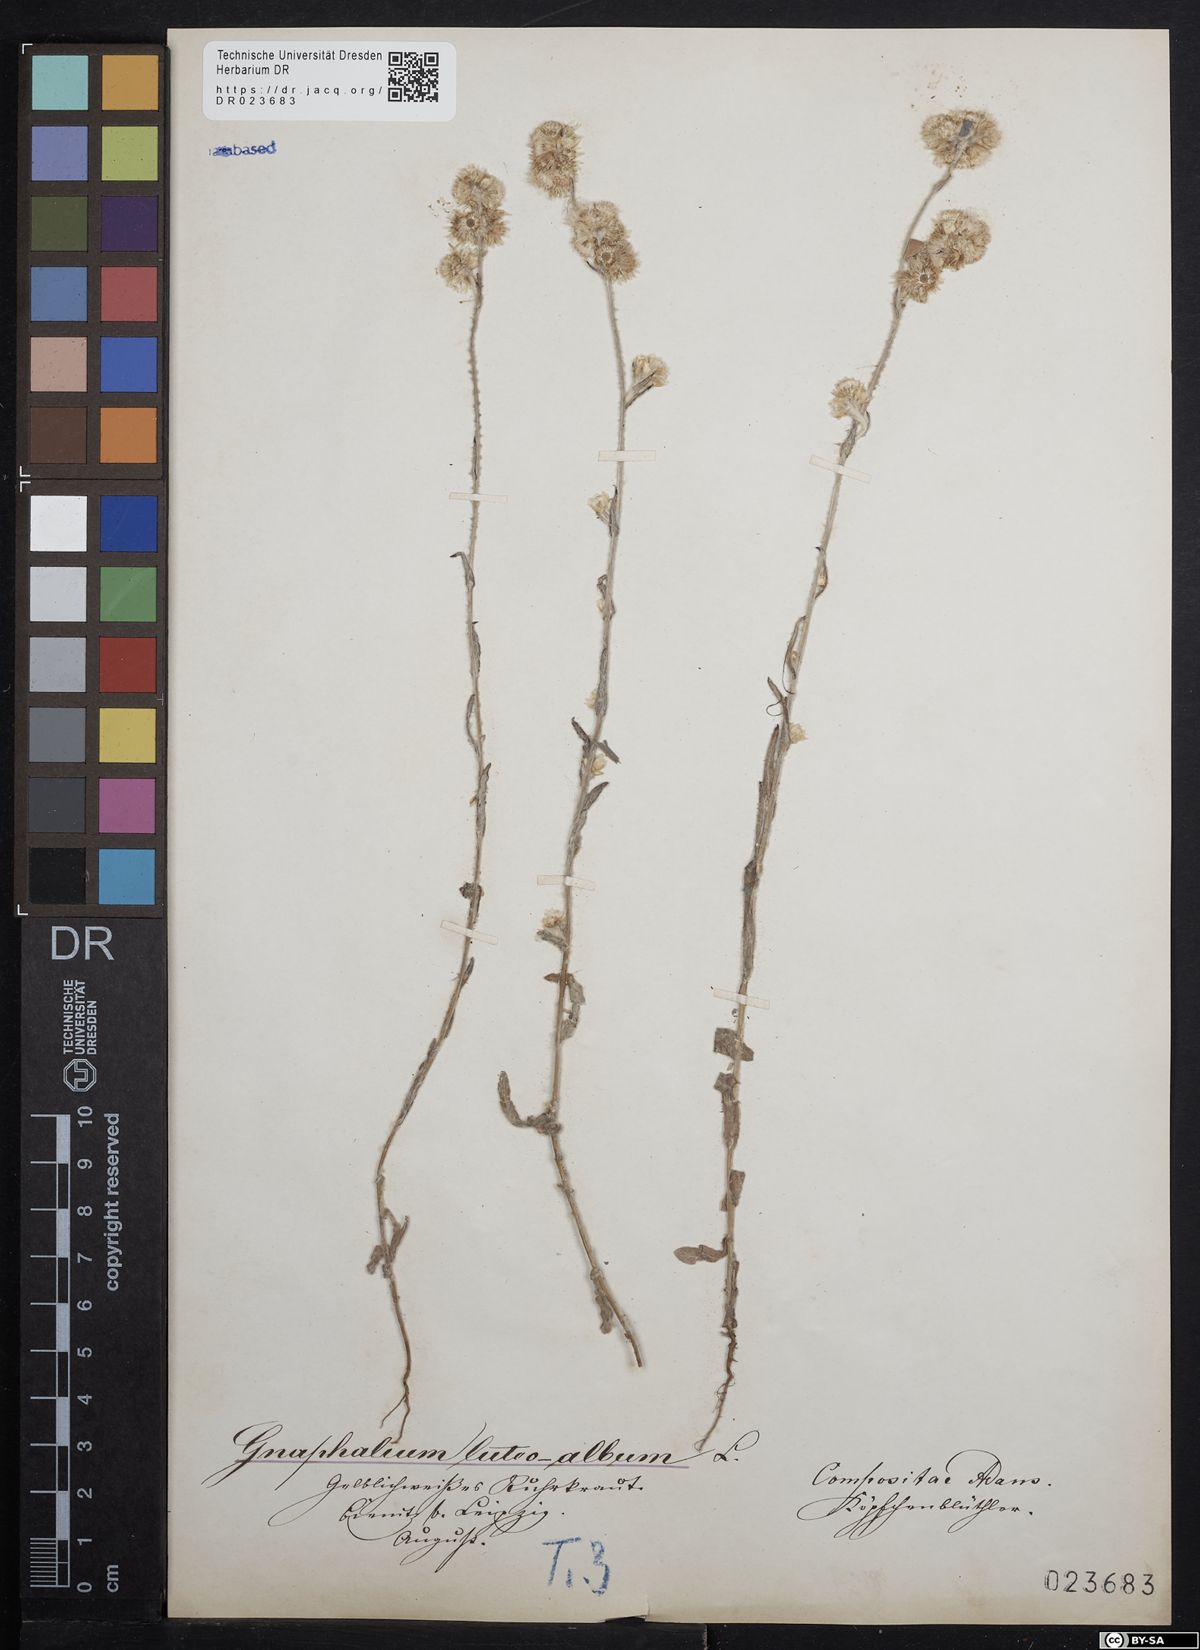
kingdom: Plantae
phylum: Tracheophyta
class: Magnoliopsida
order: Asterales
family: Asteraceae
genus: Helichrysum
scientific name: Helichrysum luteoalbum
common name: Daisy
